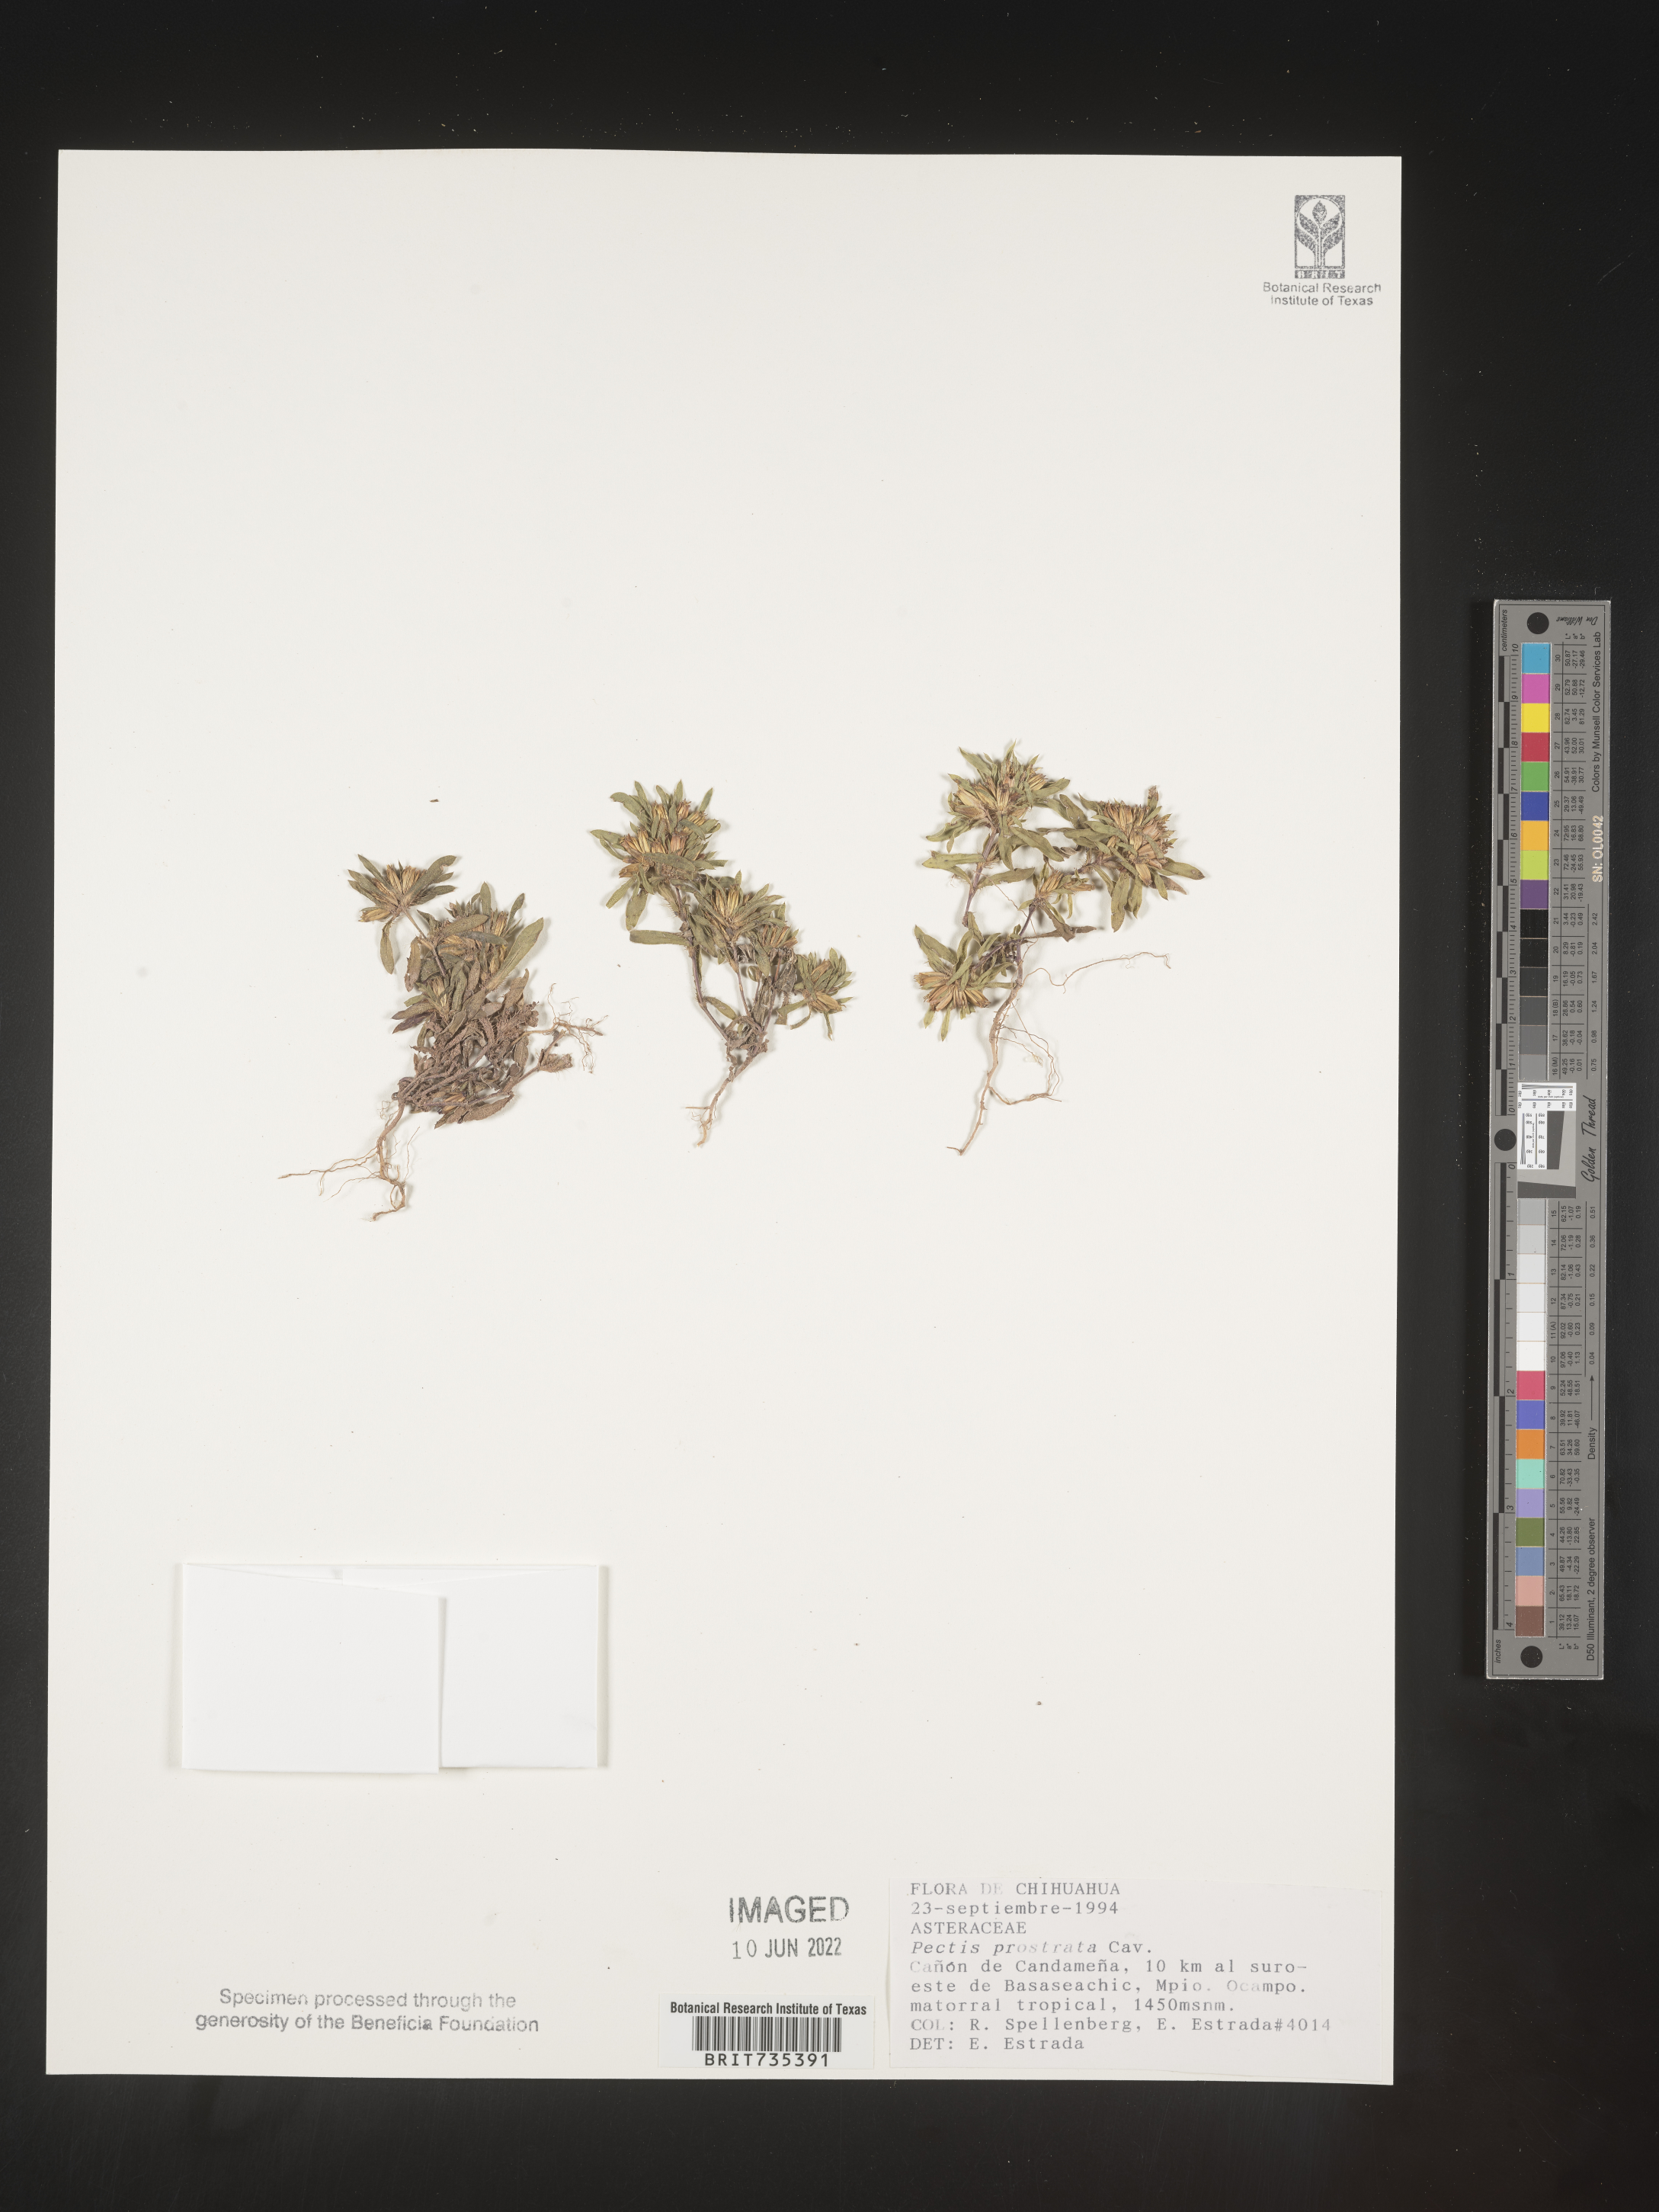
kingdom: Plantae
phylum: Tracheophyta
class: Magnoliopsida
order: Asterales
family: Asteraceae
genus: Pectis
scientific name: Pectis
